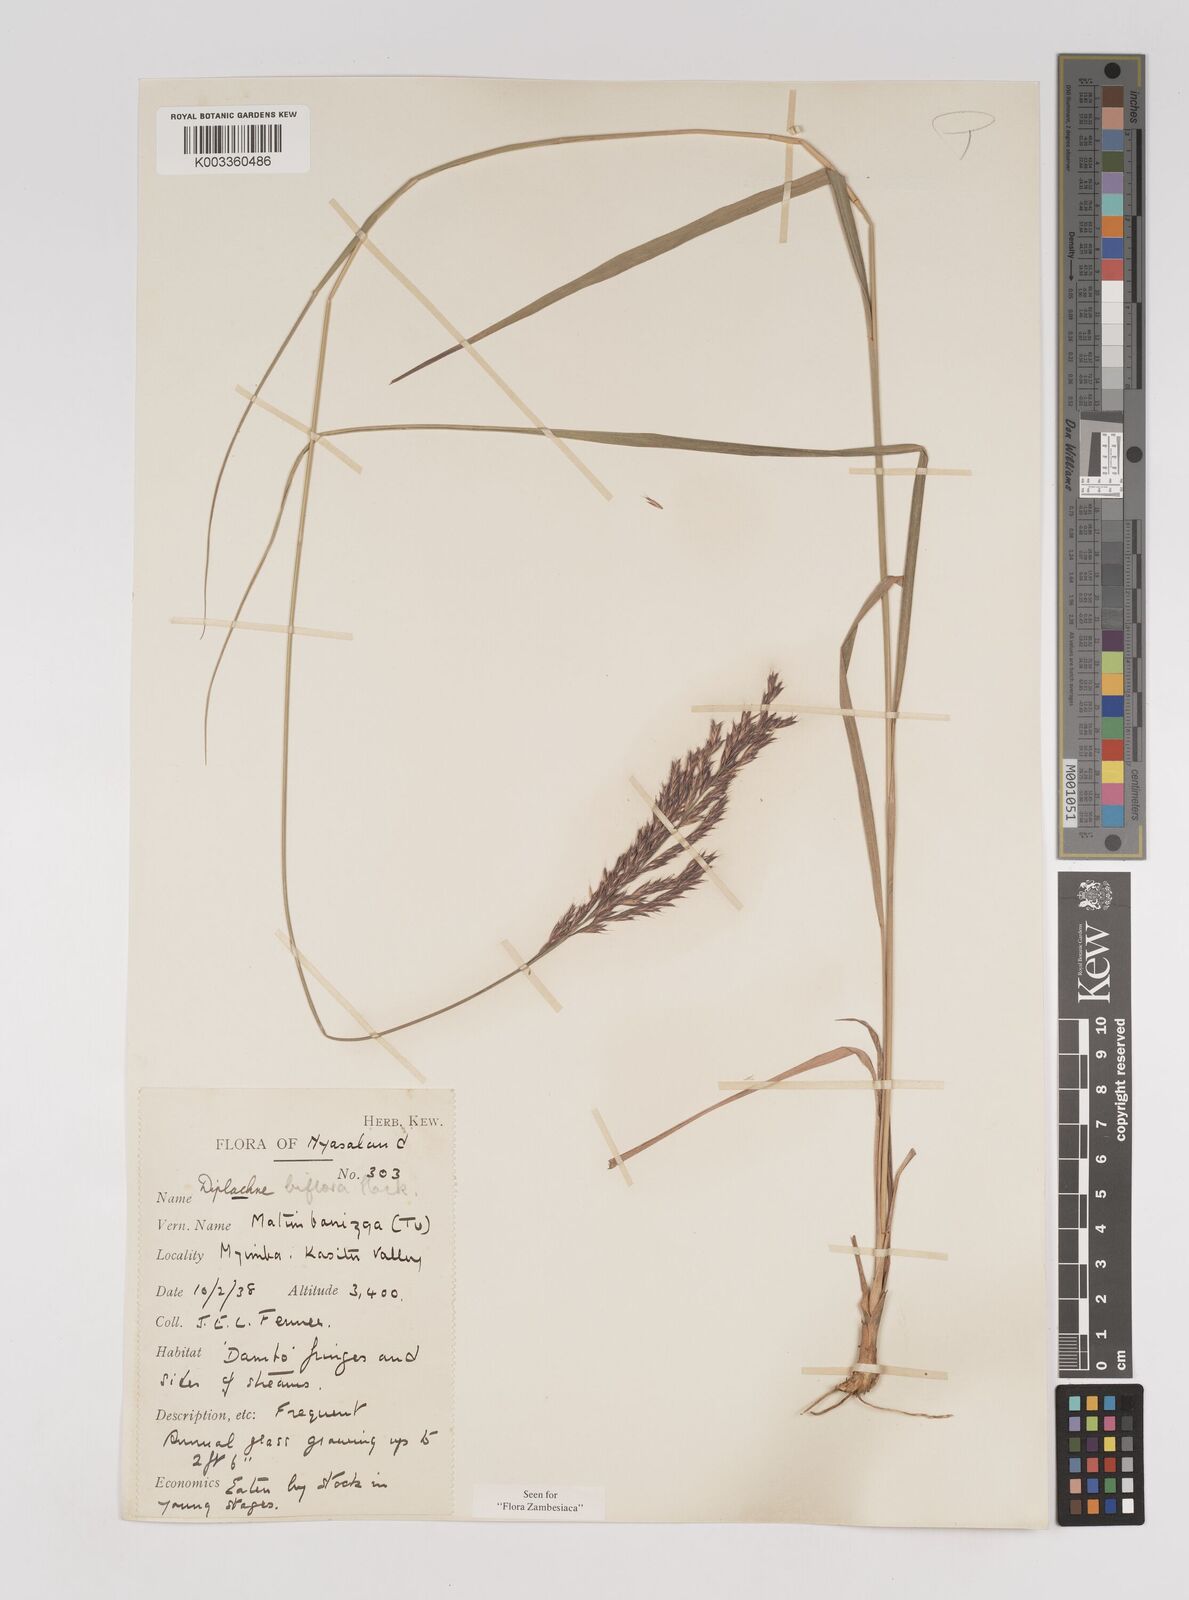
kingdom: Plantae
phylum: Tracheophyta
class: Liliopsida
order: Poales
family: Poaceae
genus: Bewsia
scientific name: Bewsia biflora
